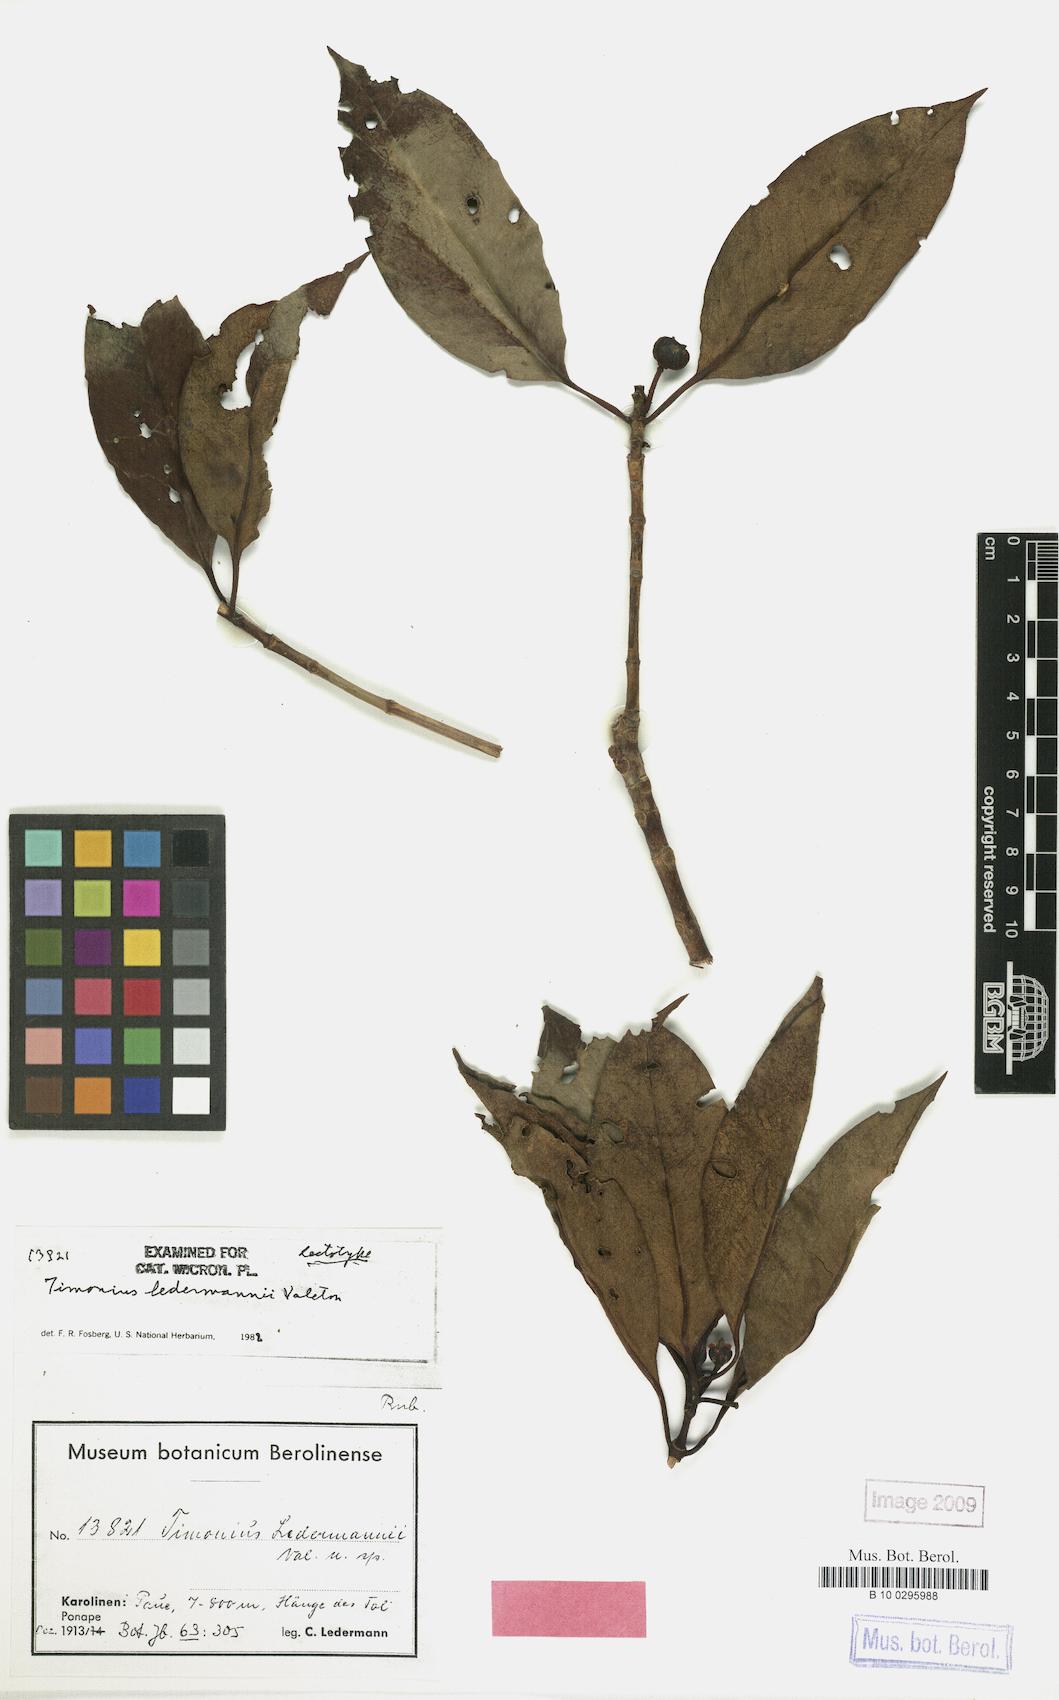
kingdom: Plantae
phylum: Tracheophyta
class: Magnoliopsida
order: Gentianales
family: Rubiaceae
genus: Timonius
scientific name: Timonius ledermannii
